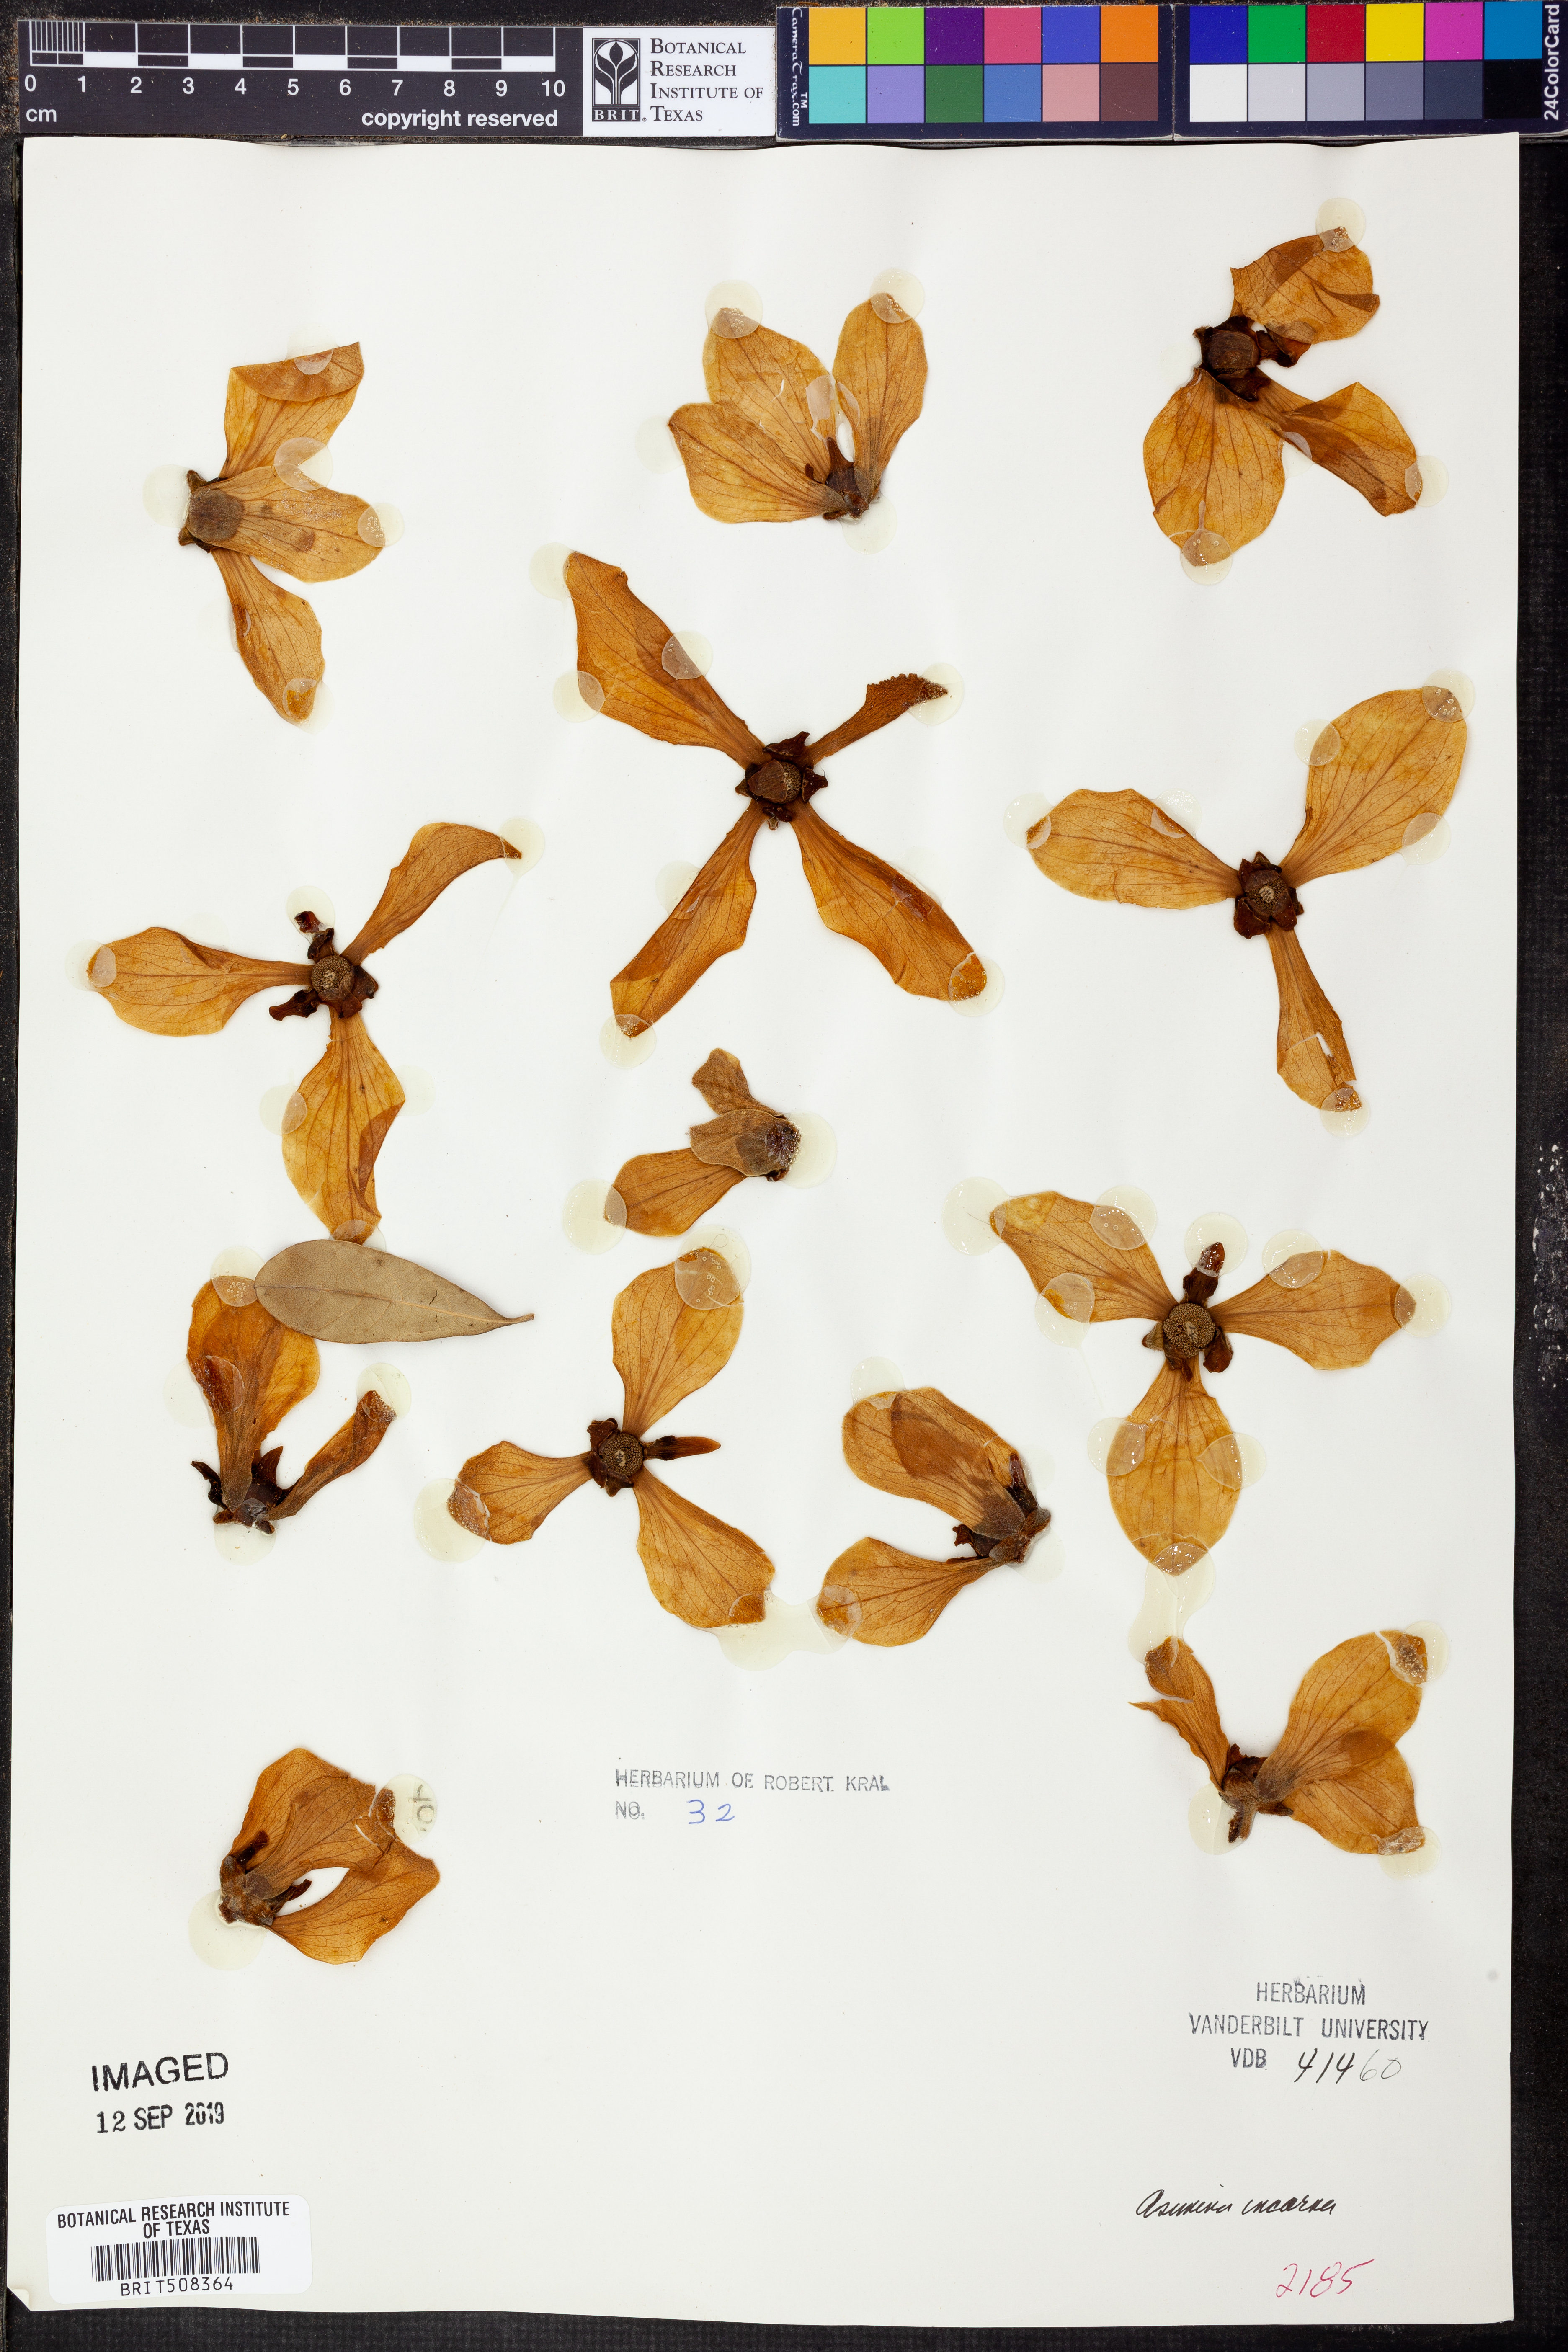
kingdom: Plantae
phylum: Tracheophyta
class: Magnoliopsida
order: Magnoliales
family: Annonaceae
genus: Asimina
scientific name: Asimina speciosa
